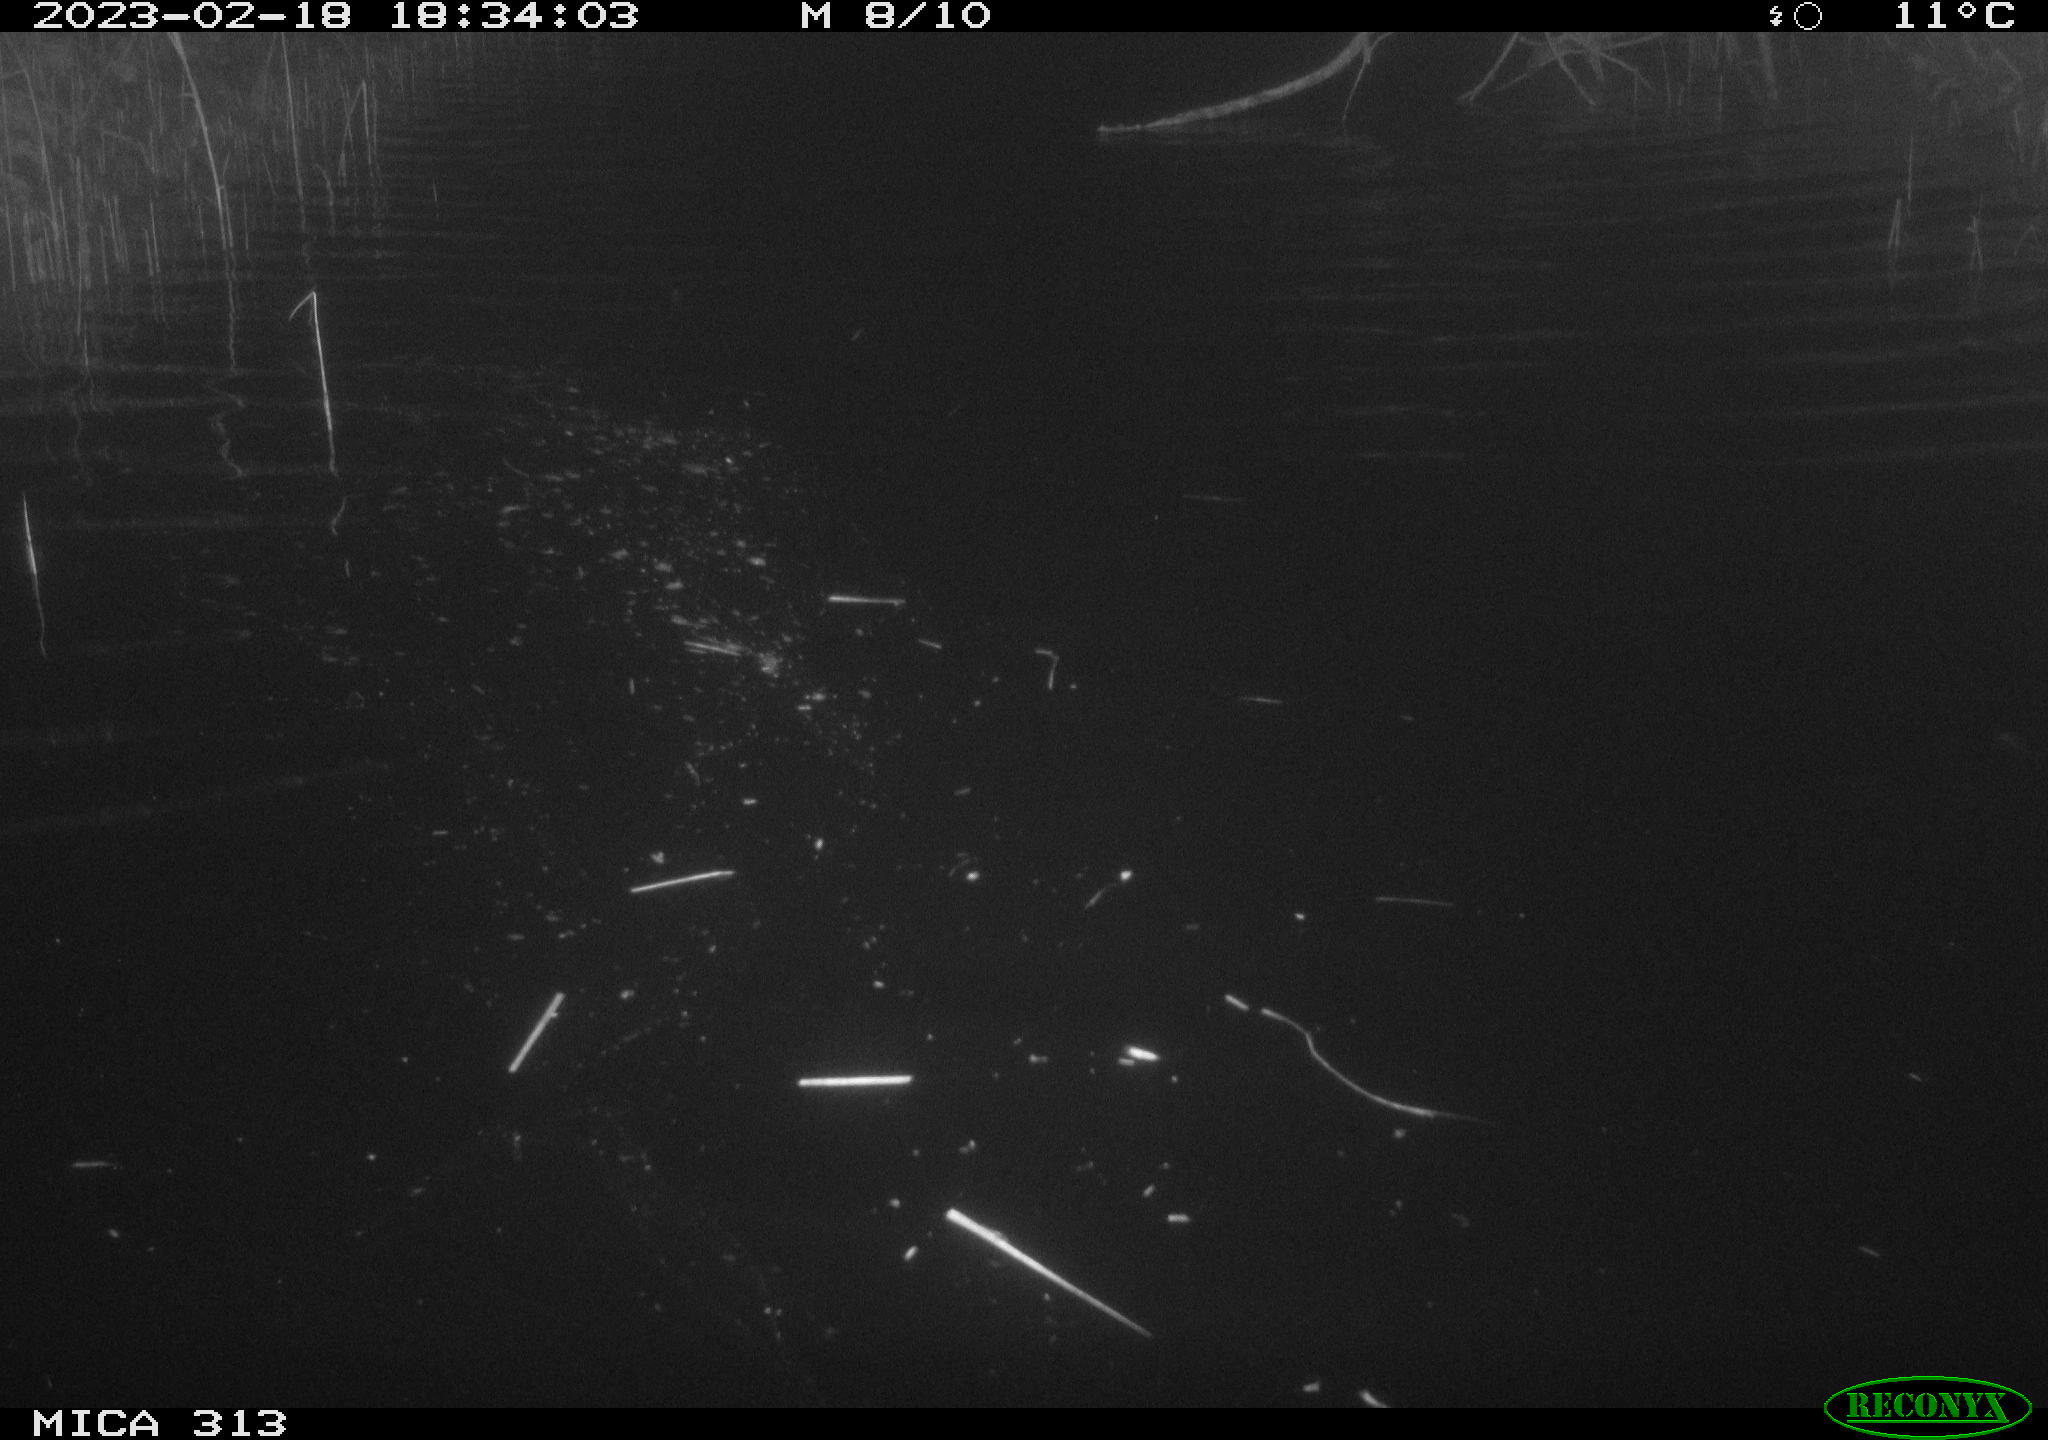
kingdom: Animalia
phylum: Chordata
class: Aves
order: Gruiformes
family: Rallidae
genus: Gallinula
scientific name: Gallinula chloropus
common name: Common moorhen
